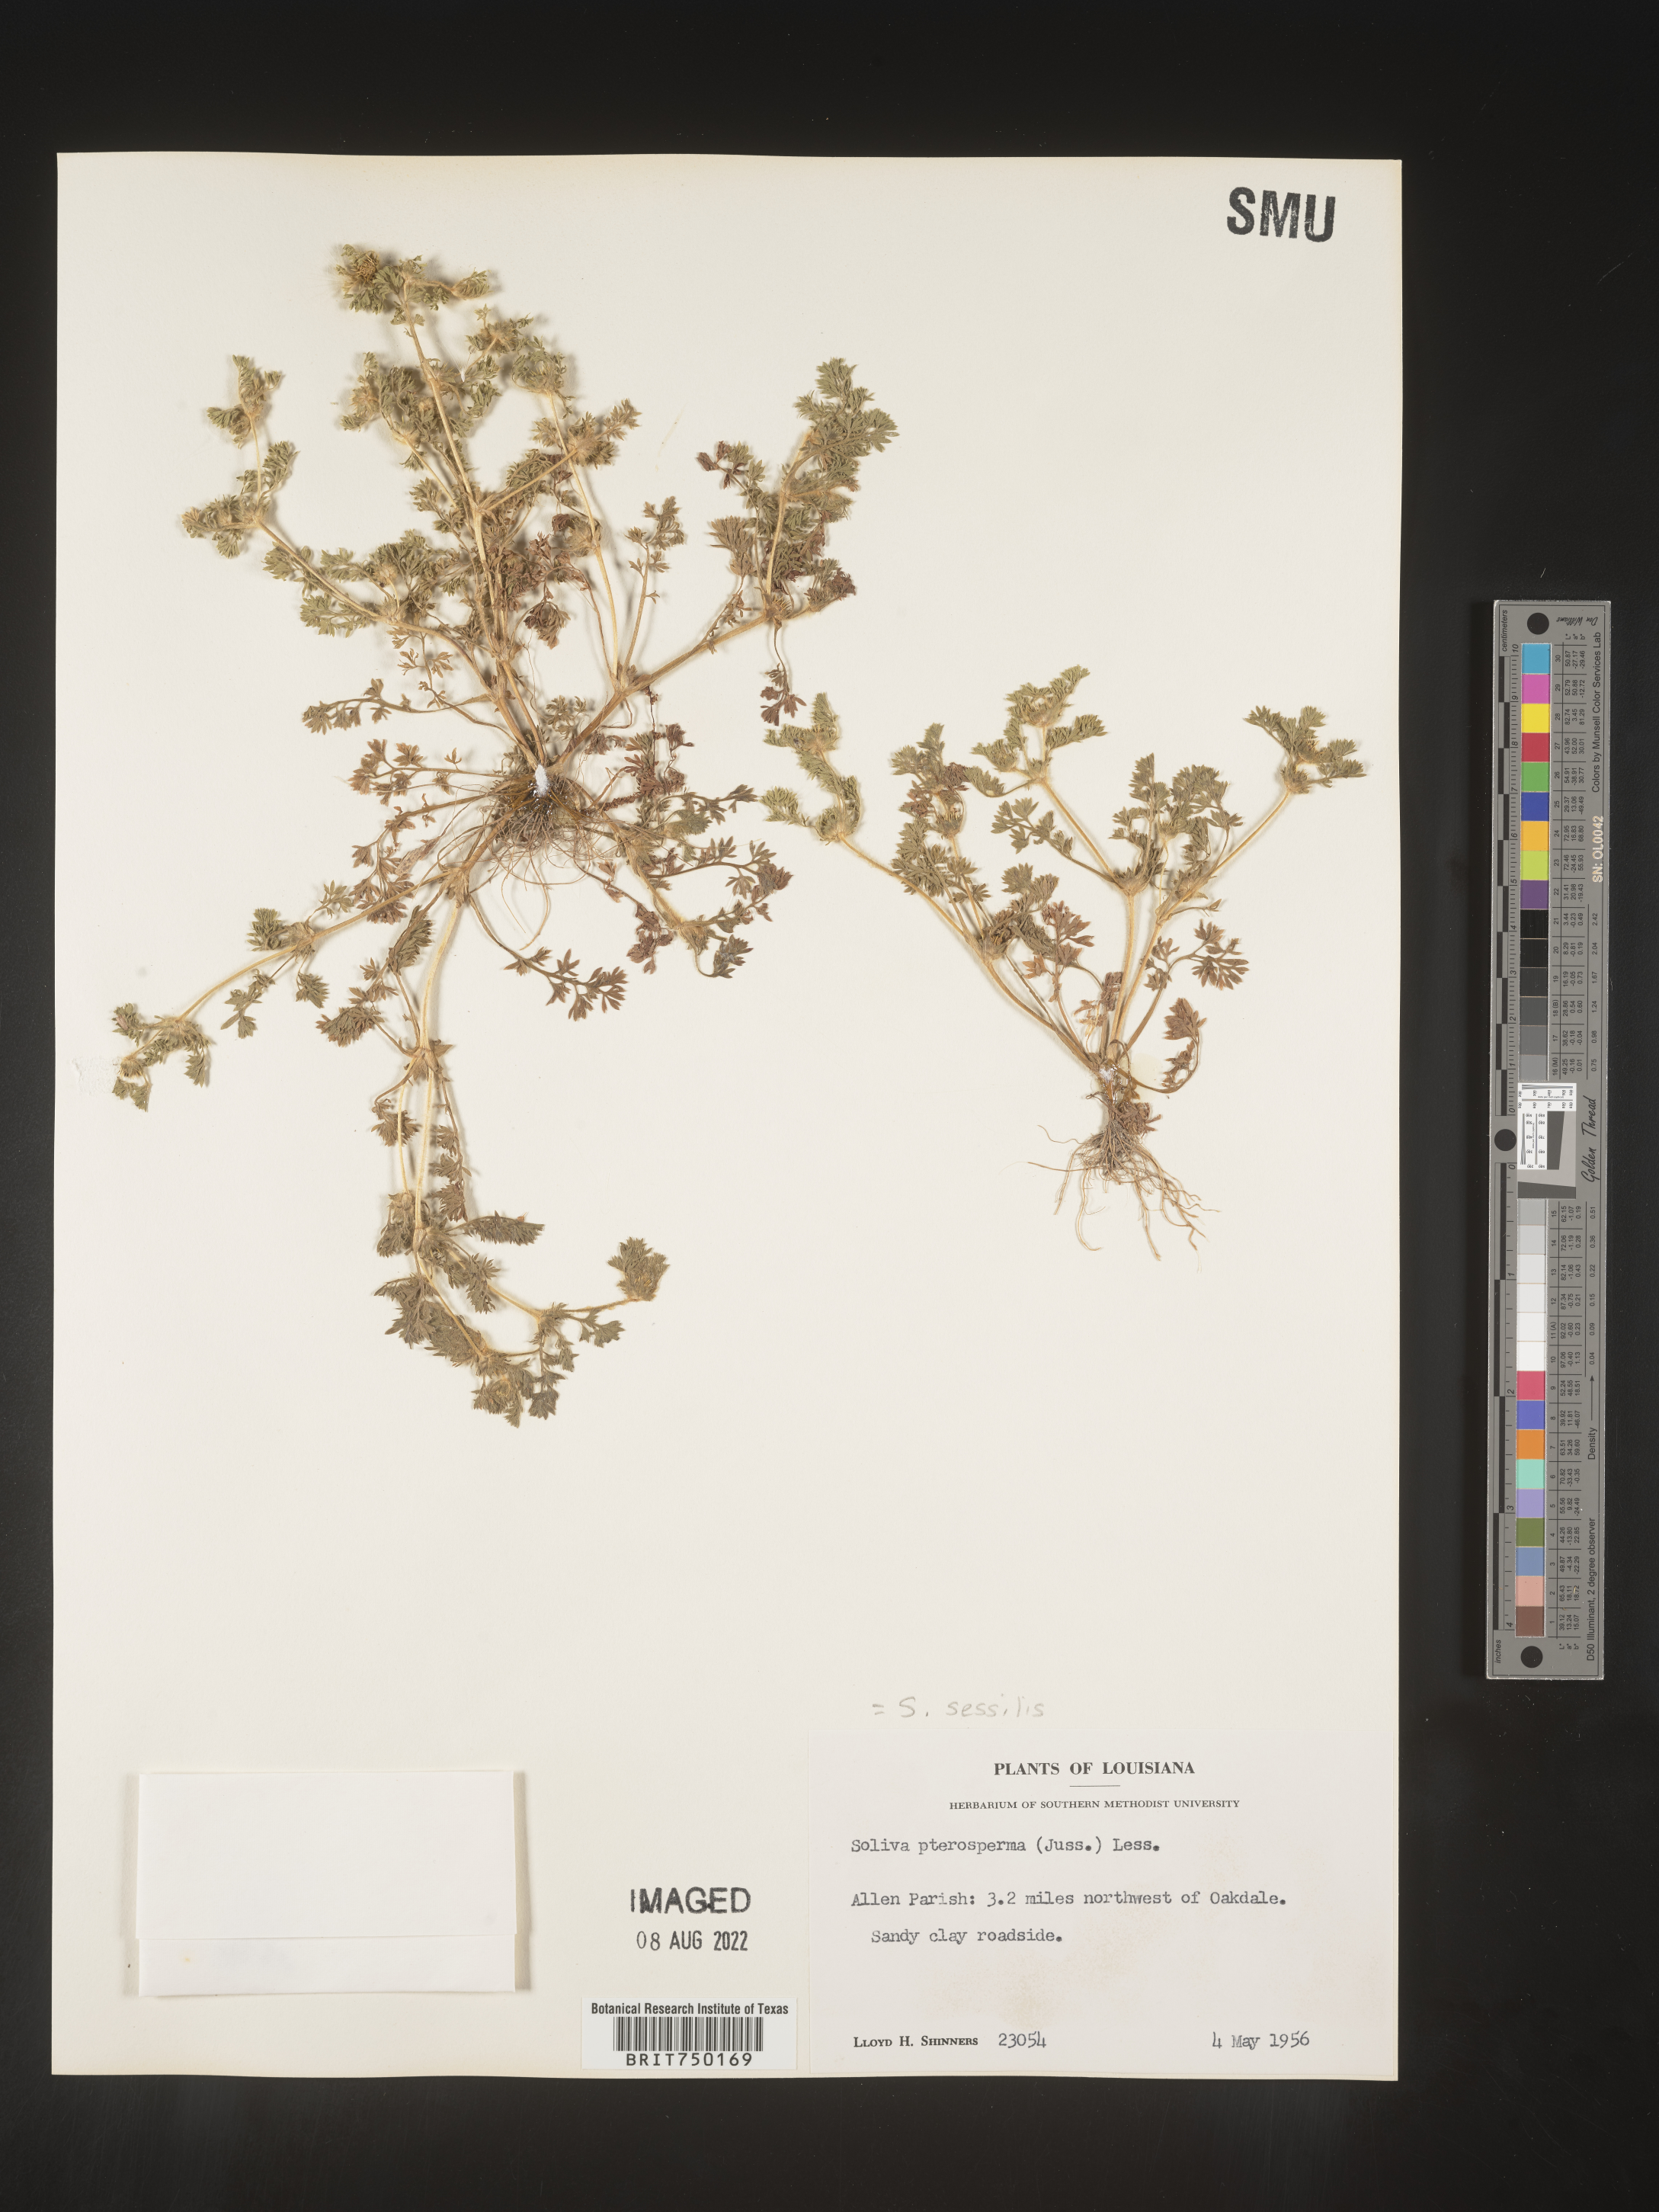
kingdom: Plantae
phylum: Tracheophyta
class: Magnoliopsida
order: Asterales
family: Asteraceae
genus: Soliva
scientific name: Soliva sessilis
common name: Field burrweed
